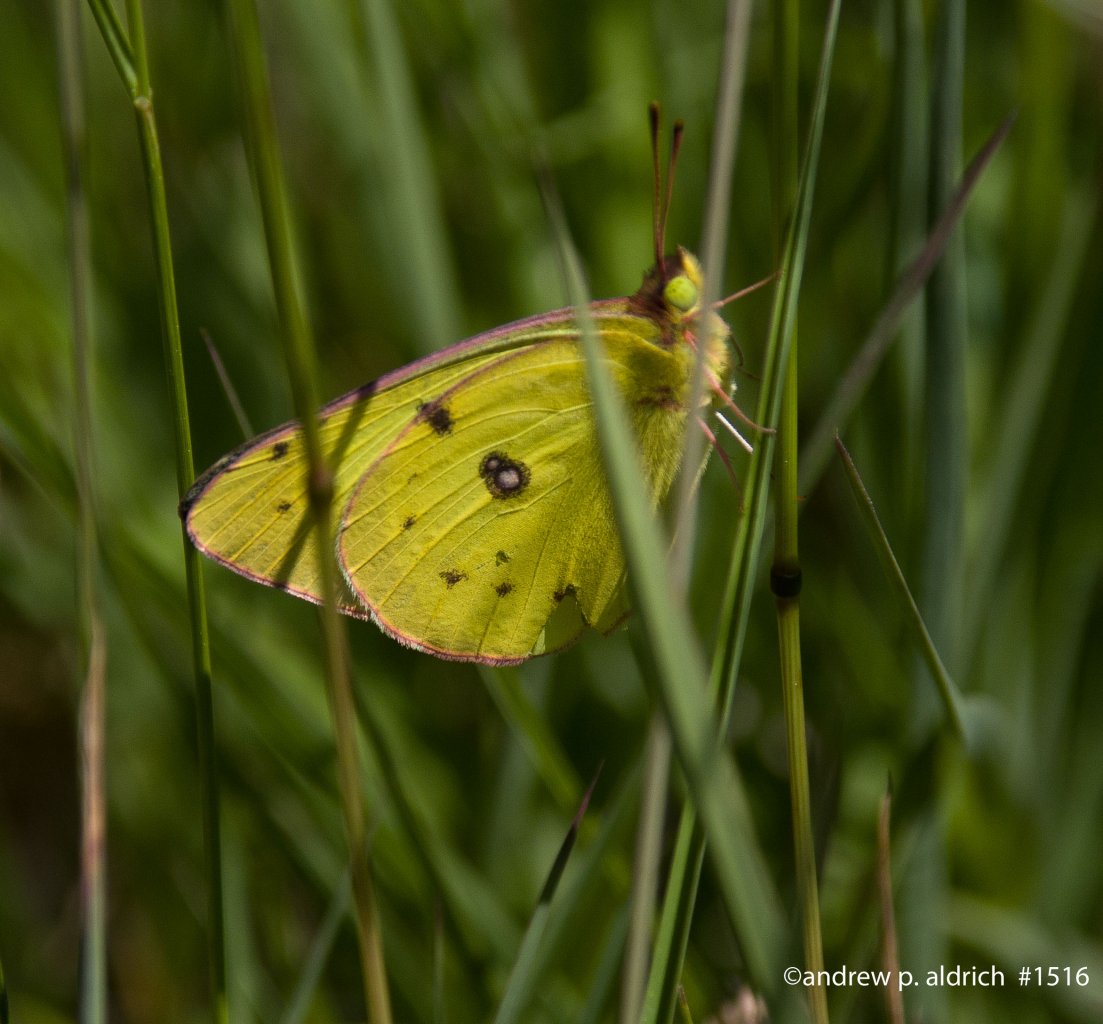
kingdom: Animalia
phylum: Arthropoda
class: Insecta
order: Lepidoptera
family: Pieridae
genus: Colias
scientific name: Colias philodice
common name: Clouded Sulphur
